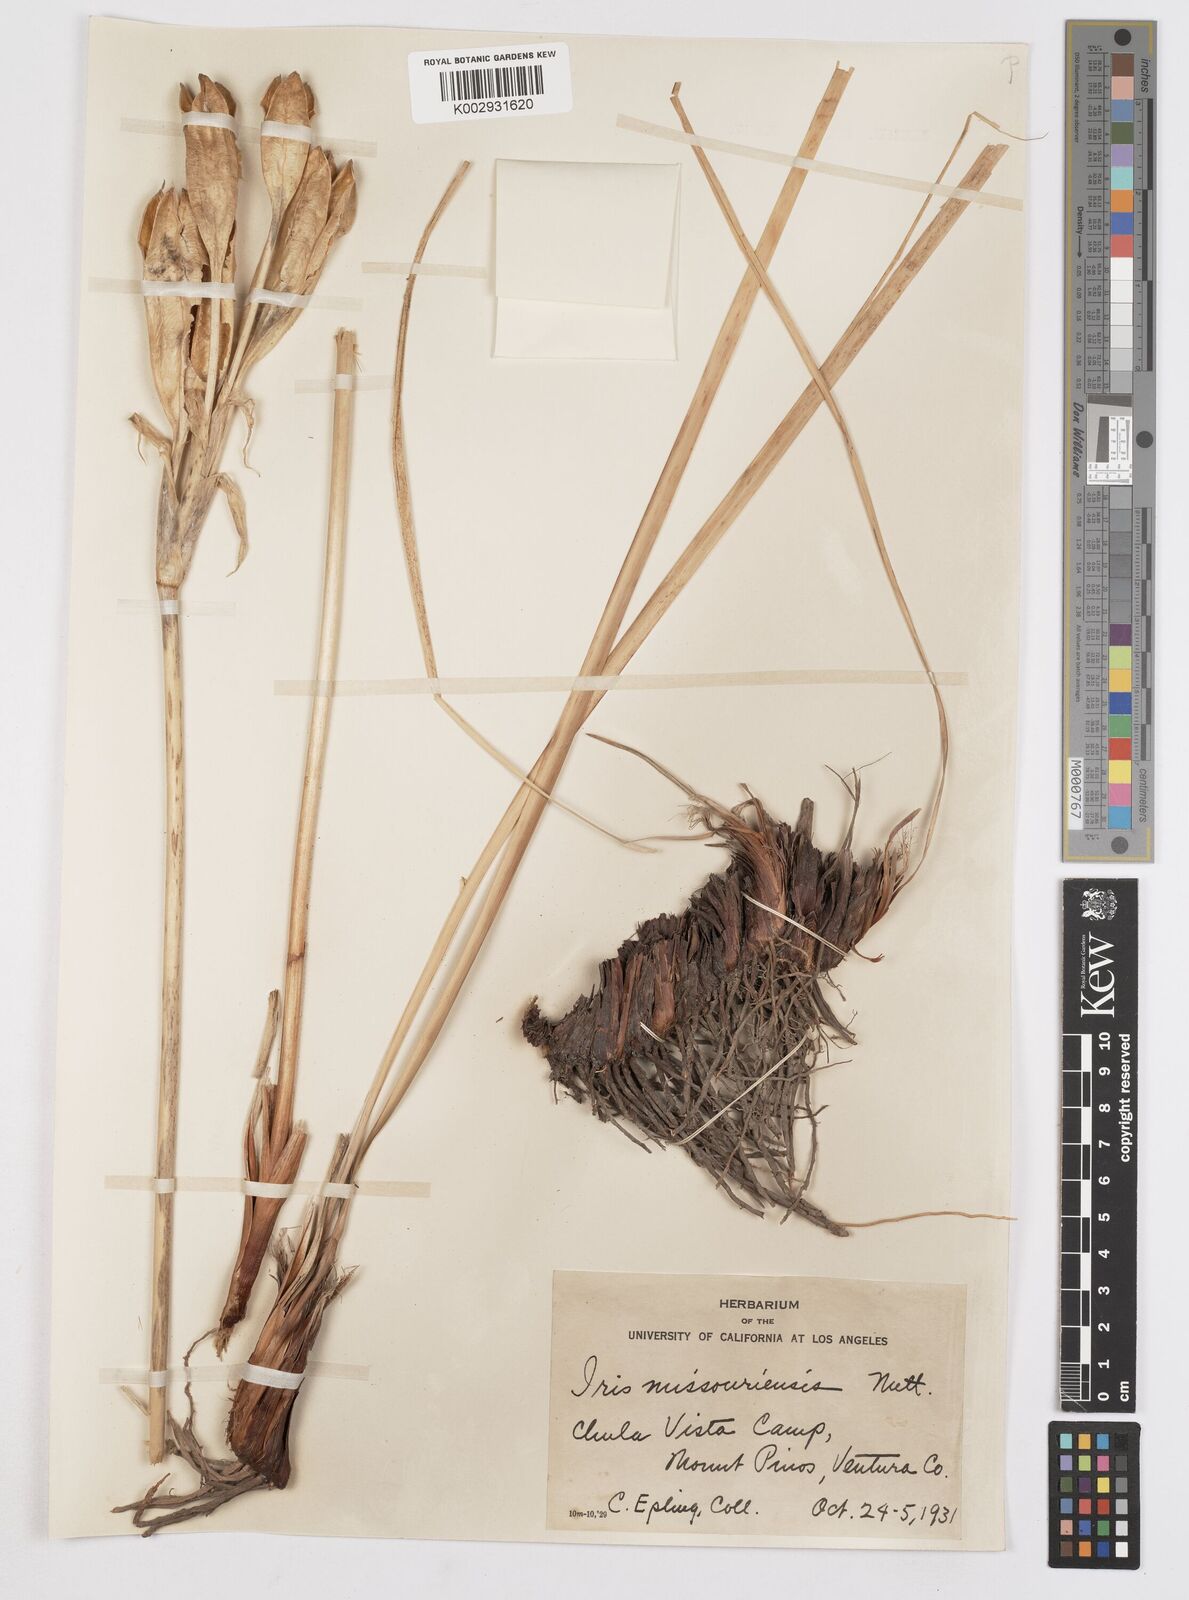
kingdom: Plantae
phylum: Tracheophyta
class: Liliopsida
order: Asparagales
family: Iridaceae
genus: Iris
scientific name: Iris missouriensis
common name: Rocky mountain iris
